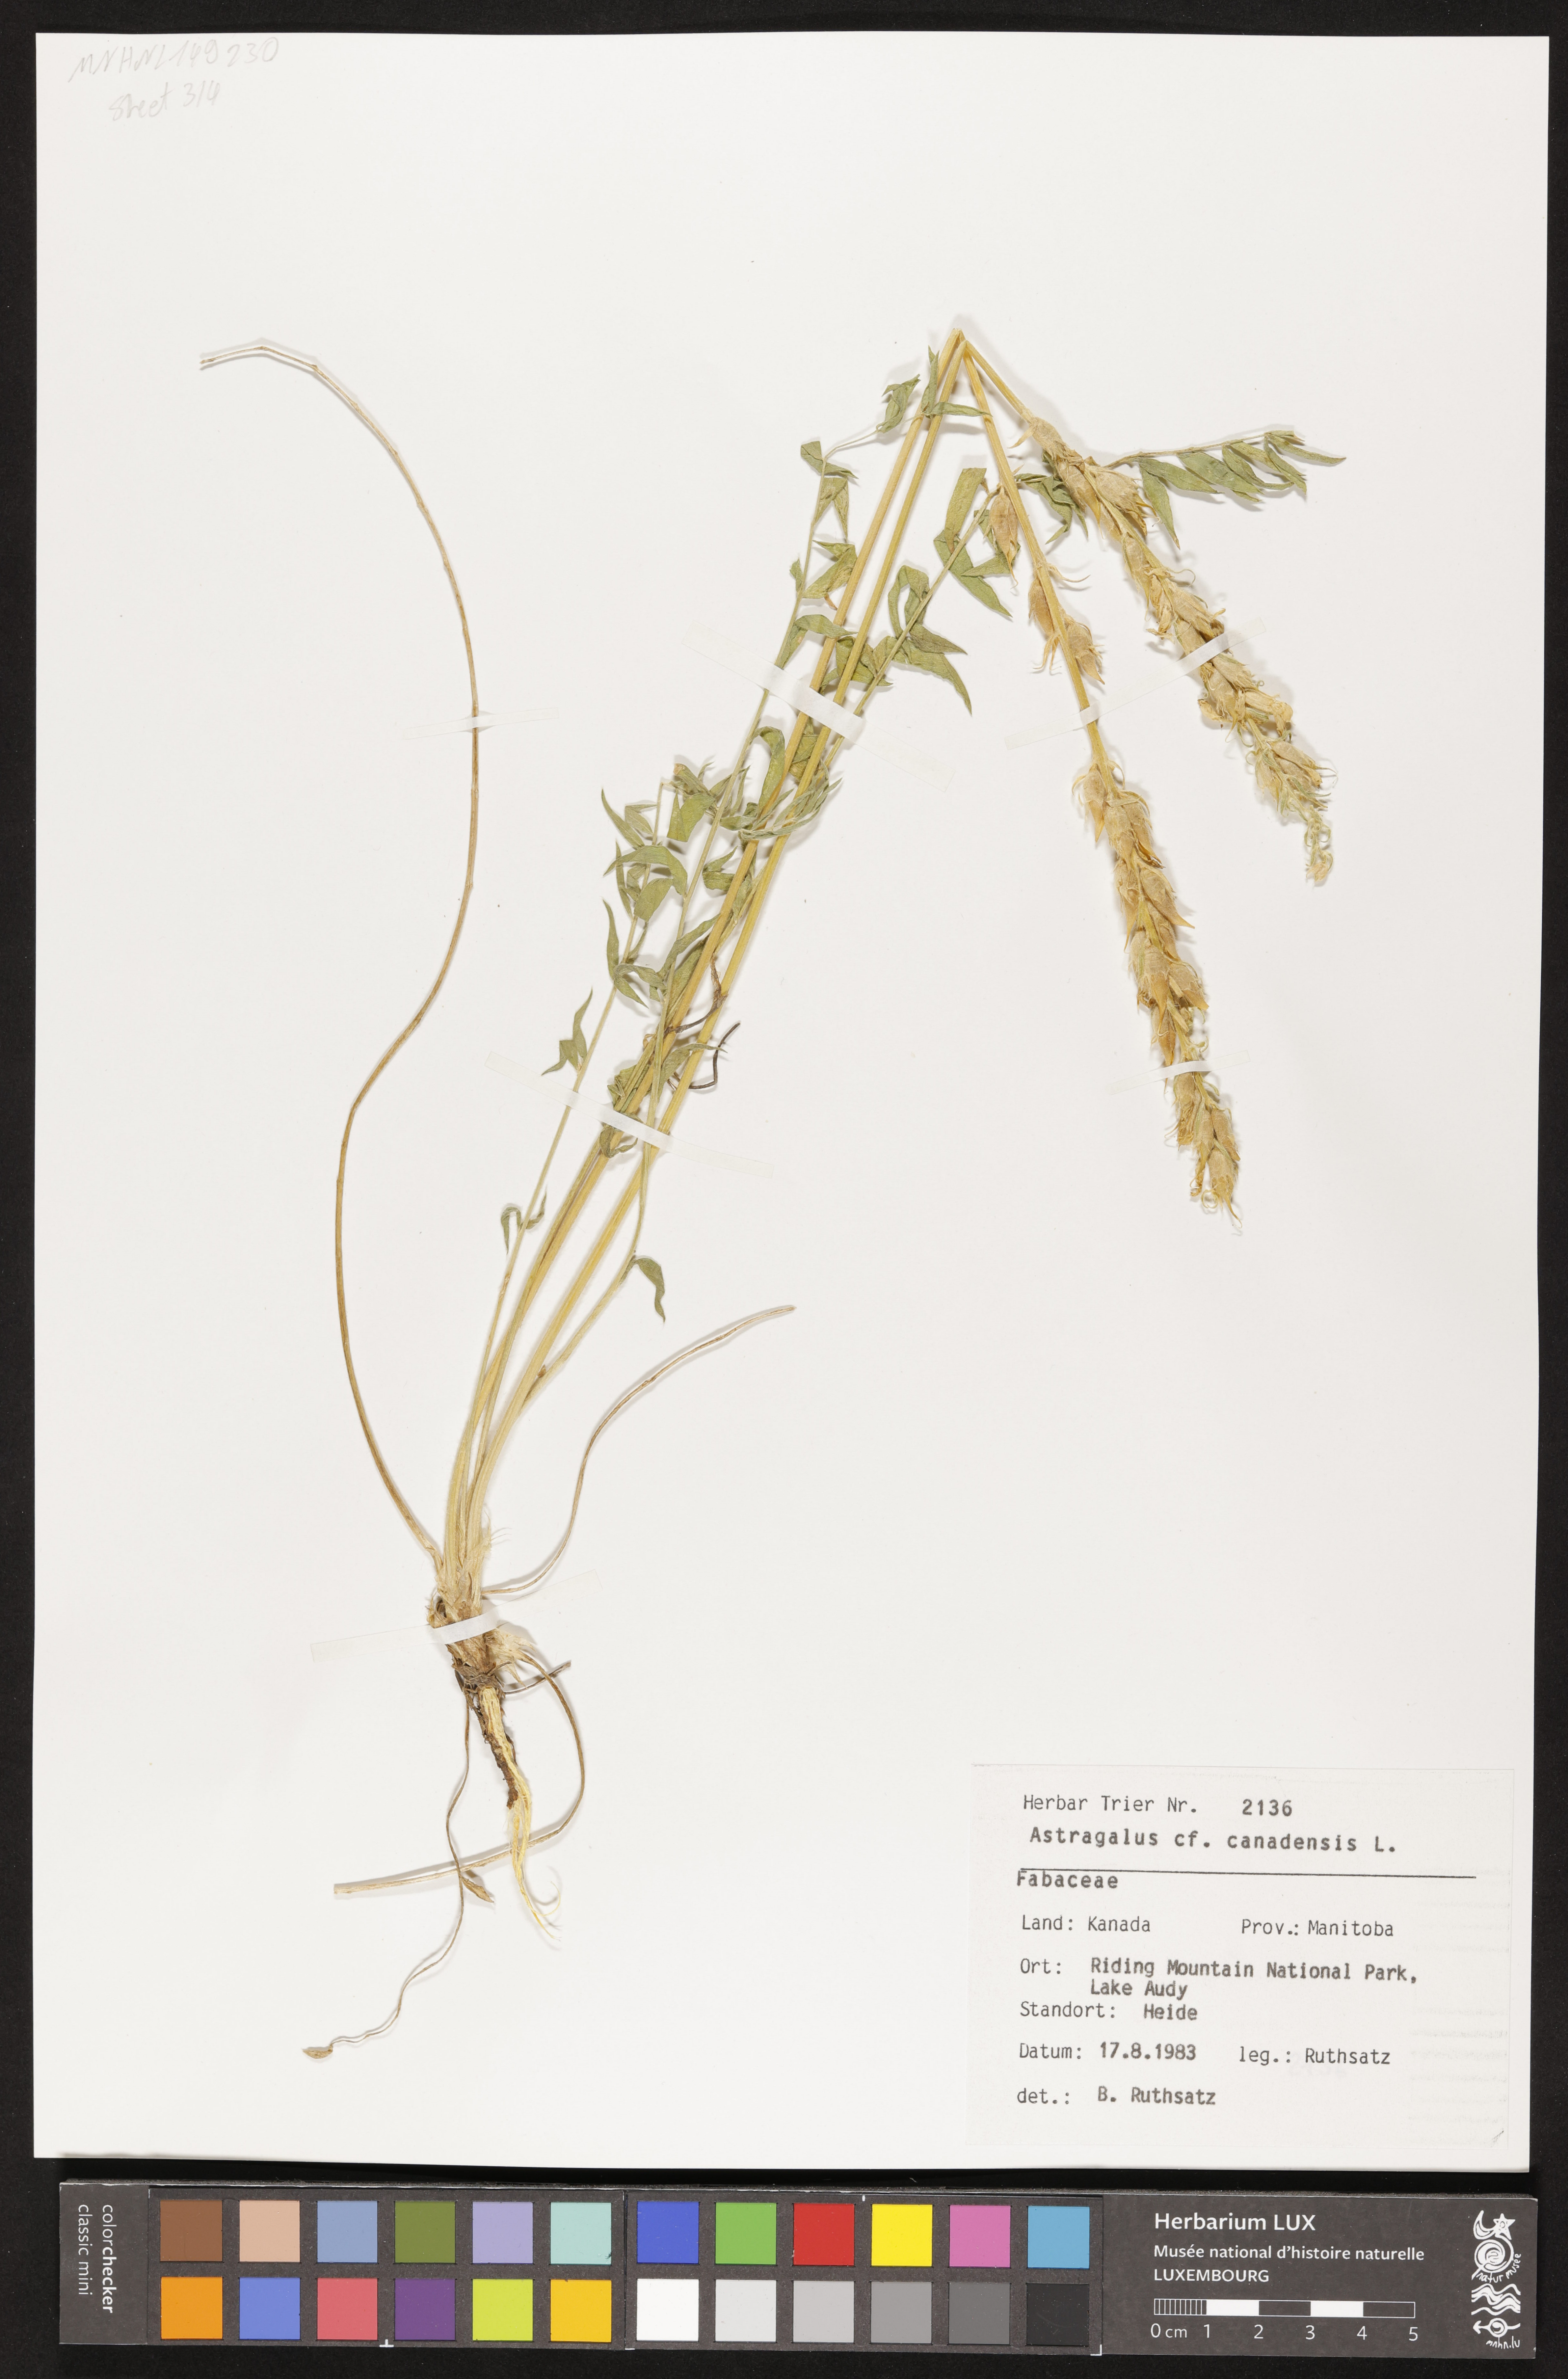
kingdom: Plantae
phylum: Tracheophyta
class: Magnoliopsida
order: Fabales
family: Fabaceae
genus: Astragalus
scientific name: Astragalus canadensis
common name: Canada milk-vetch
